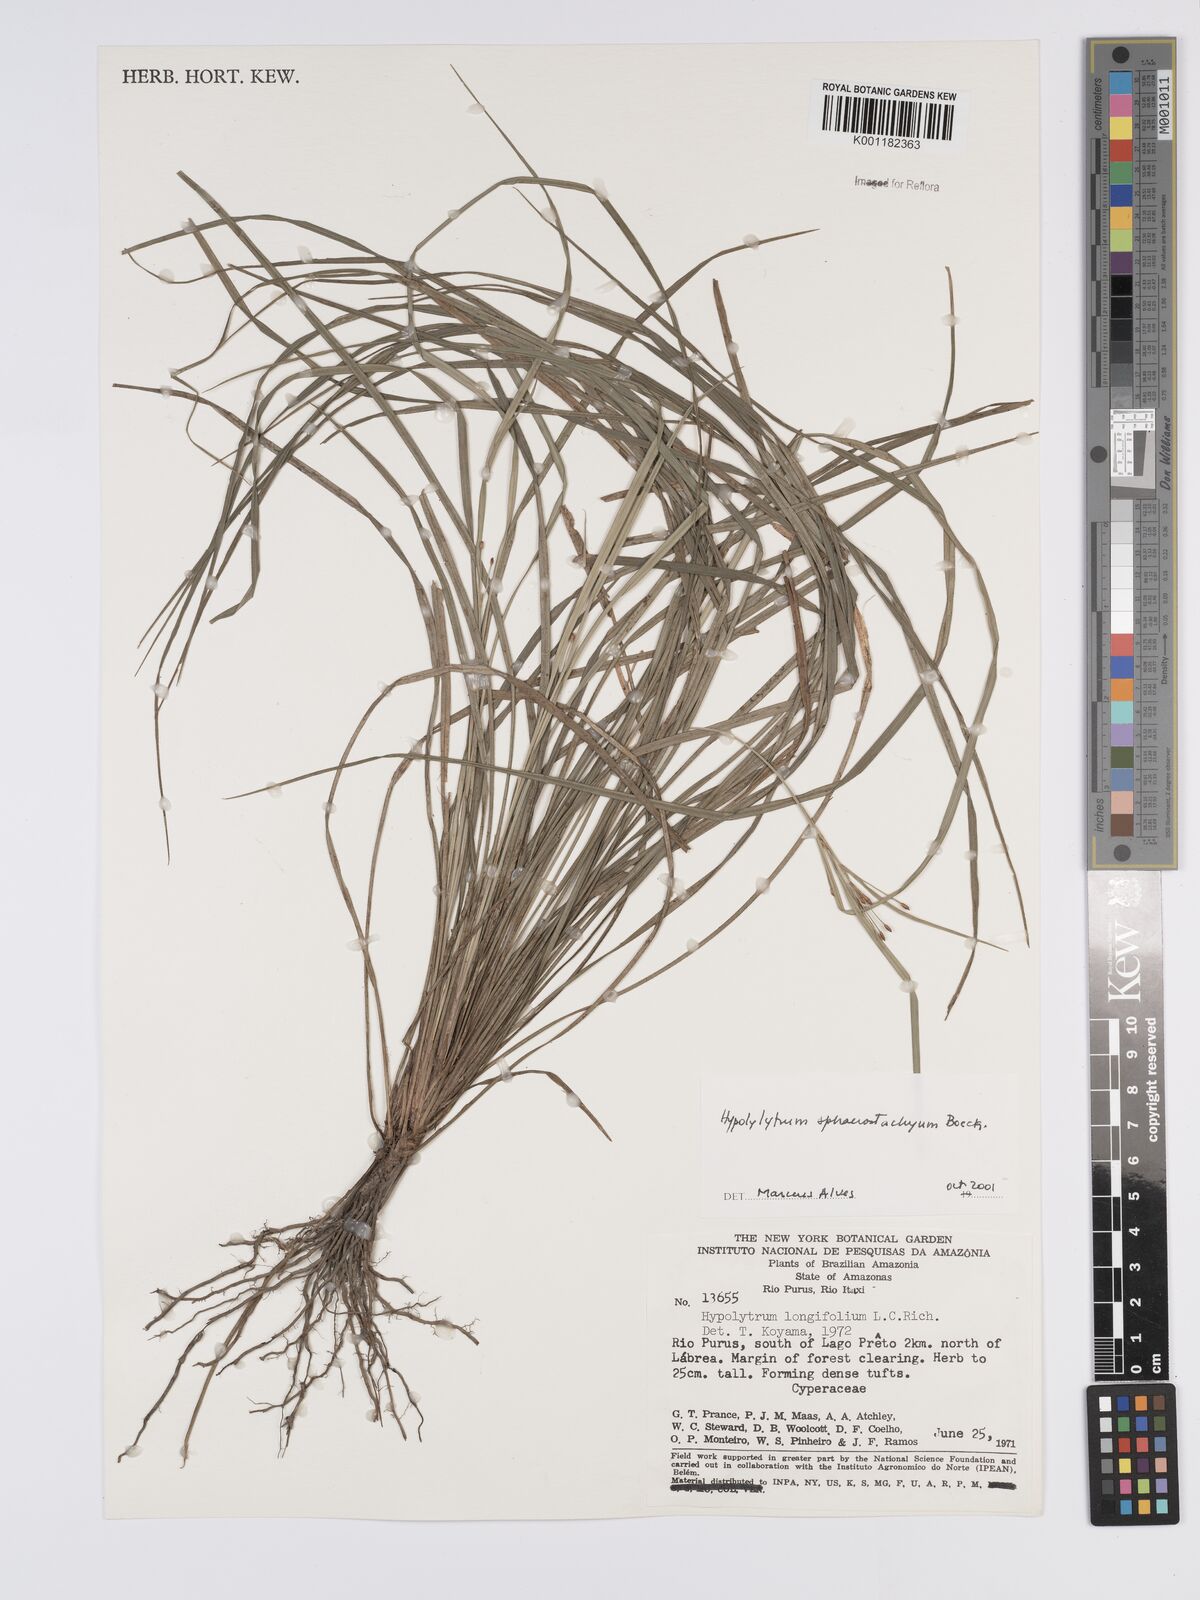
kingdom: Plantae
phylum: Tracheophyta
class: Liliopsida
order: Poales
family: Cyperaceae
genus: Hypolytrum
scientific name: Hypolytrum sphaerostachyum
